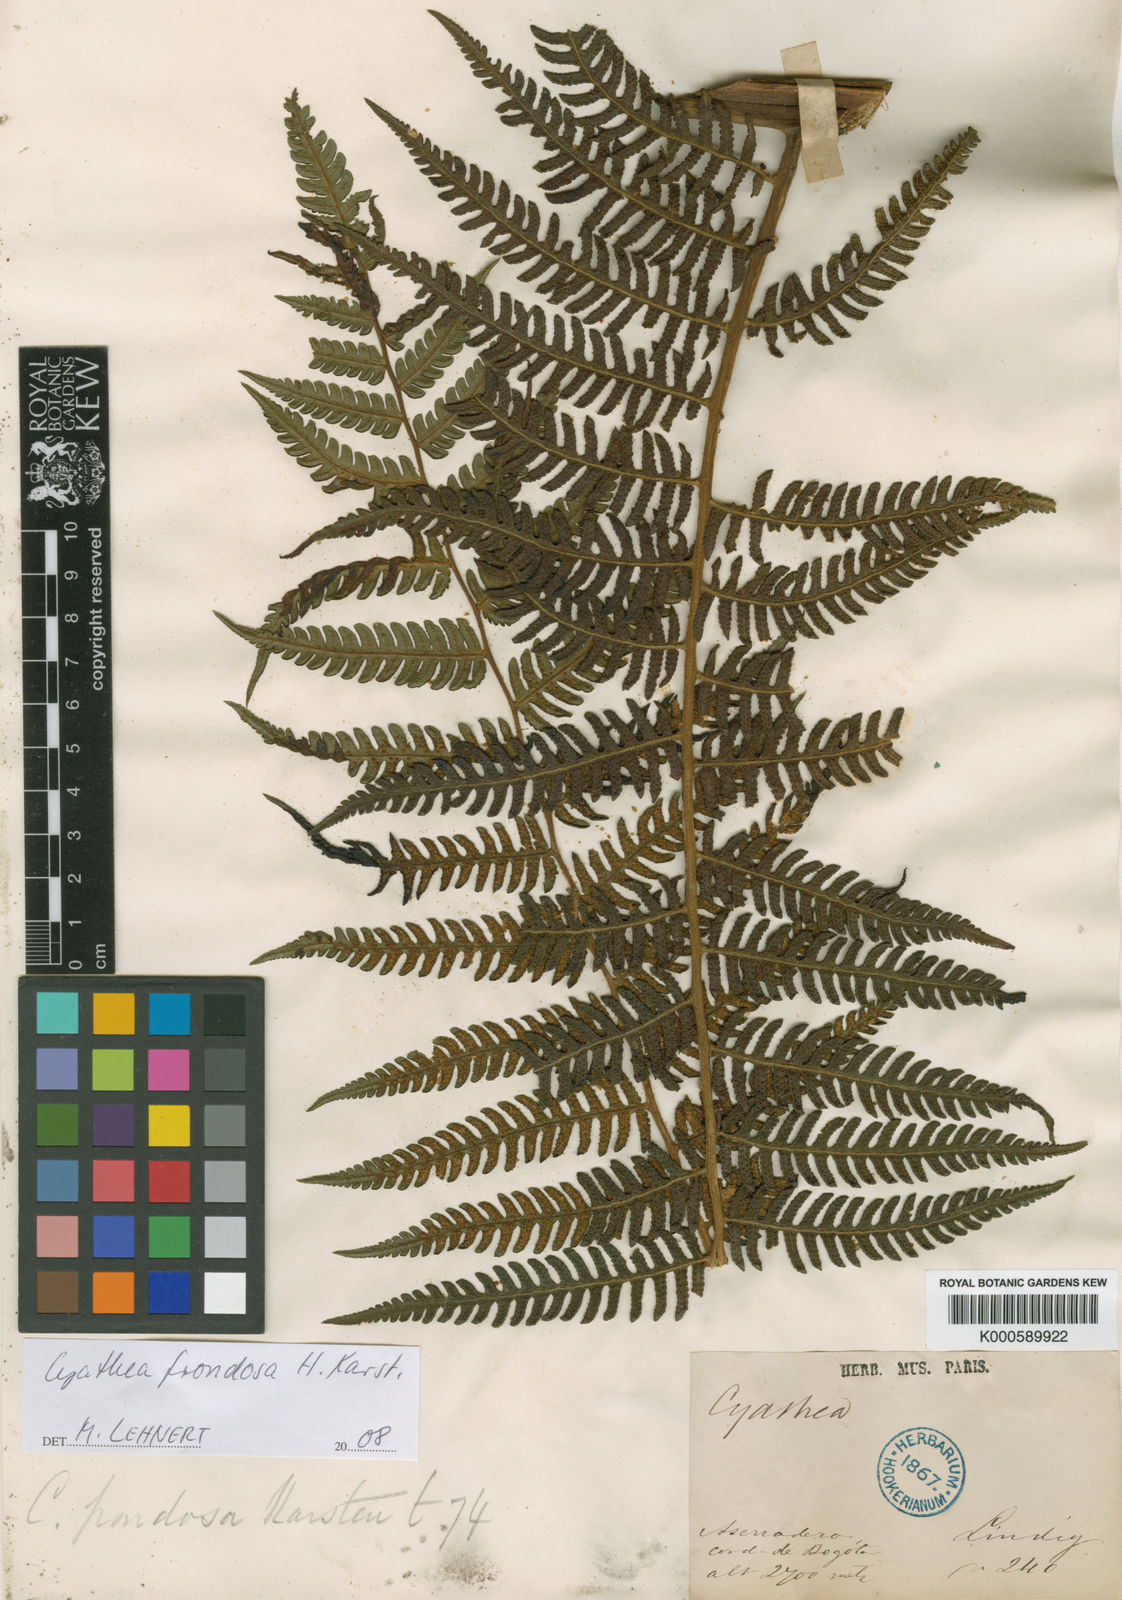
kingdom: Plantae
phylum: Tracheophyta
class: Polypodiopsida
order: Cyatheales
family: Cyatheaceae
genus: Cyathea
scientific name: Cyathea squamipes
